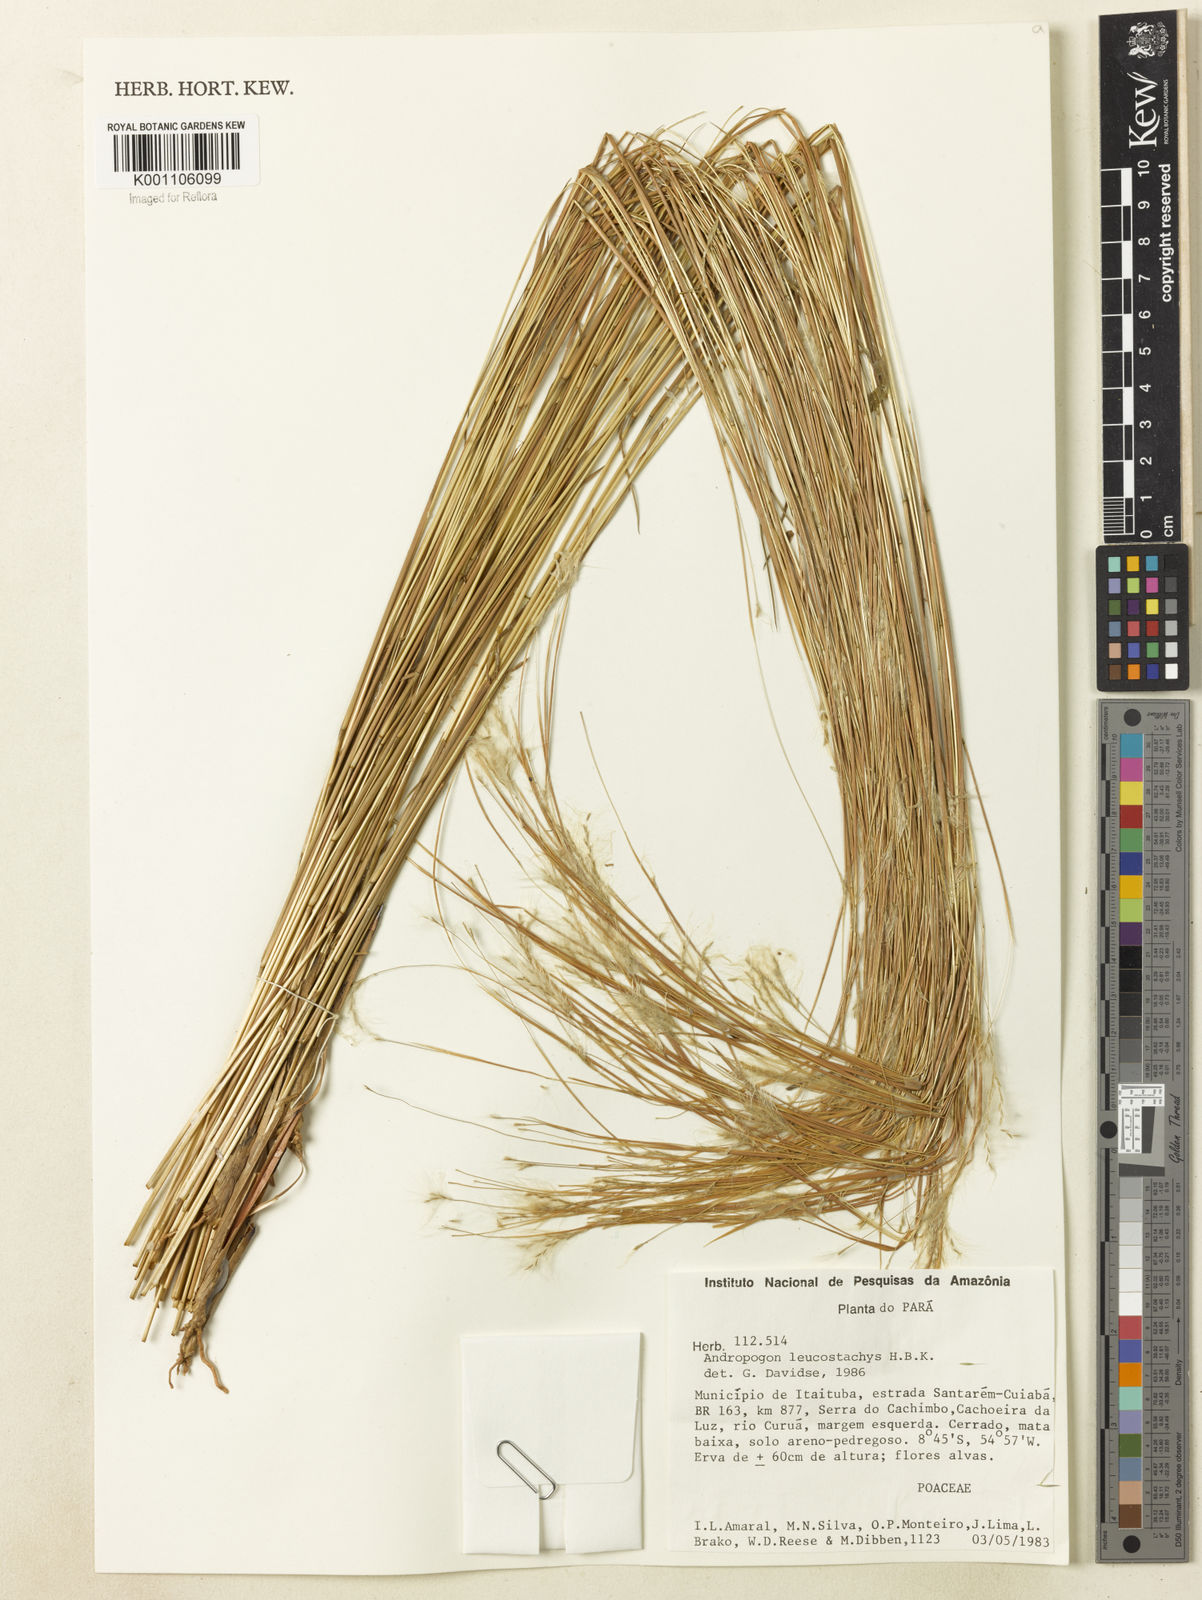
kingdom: Plantae
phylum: Tracheophyta
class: Liliopsida
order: Poales
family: Poaceae
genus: Andropogon
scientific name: Andropogon leucostachyus
